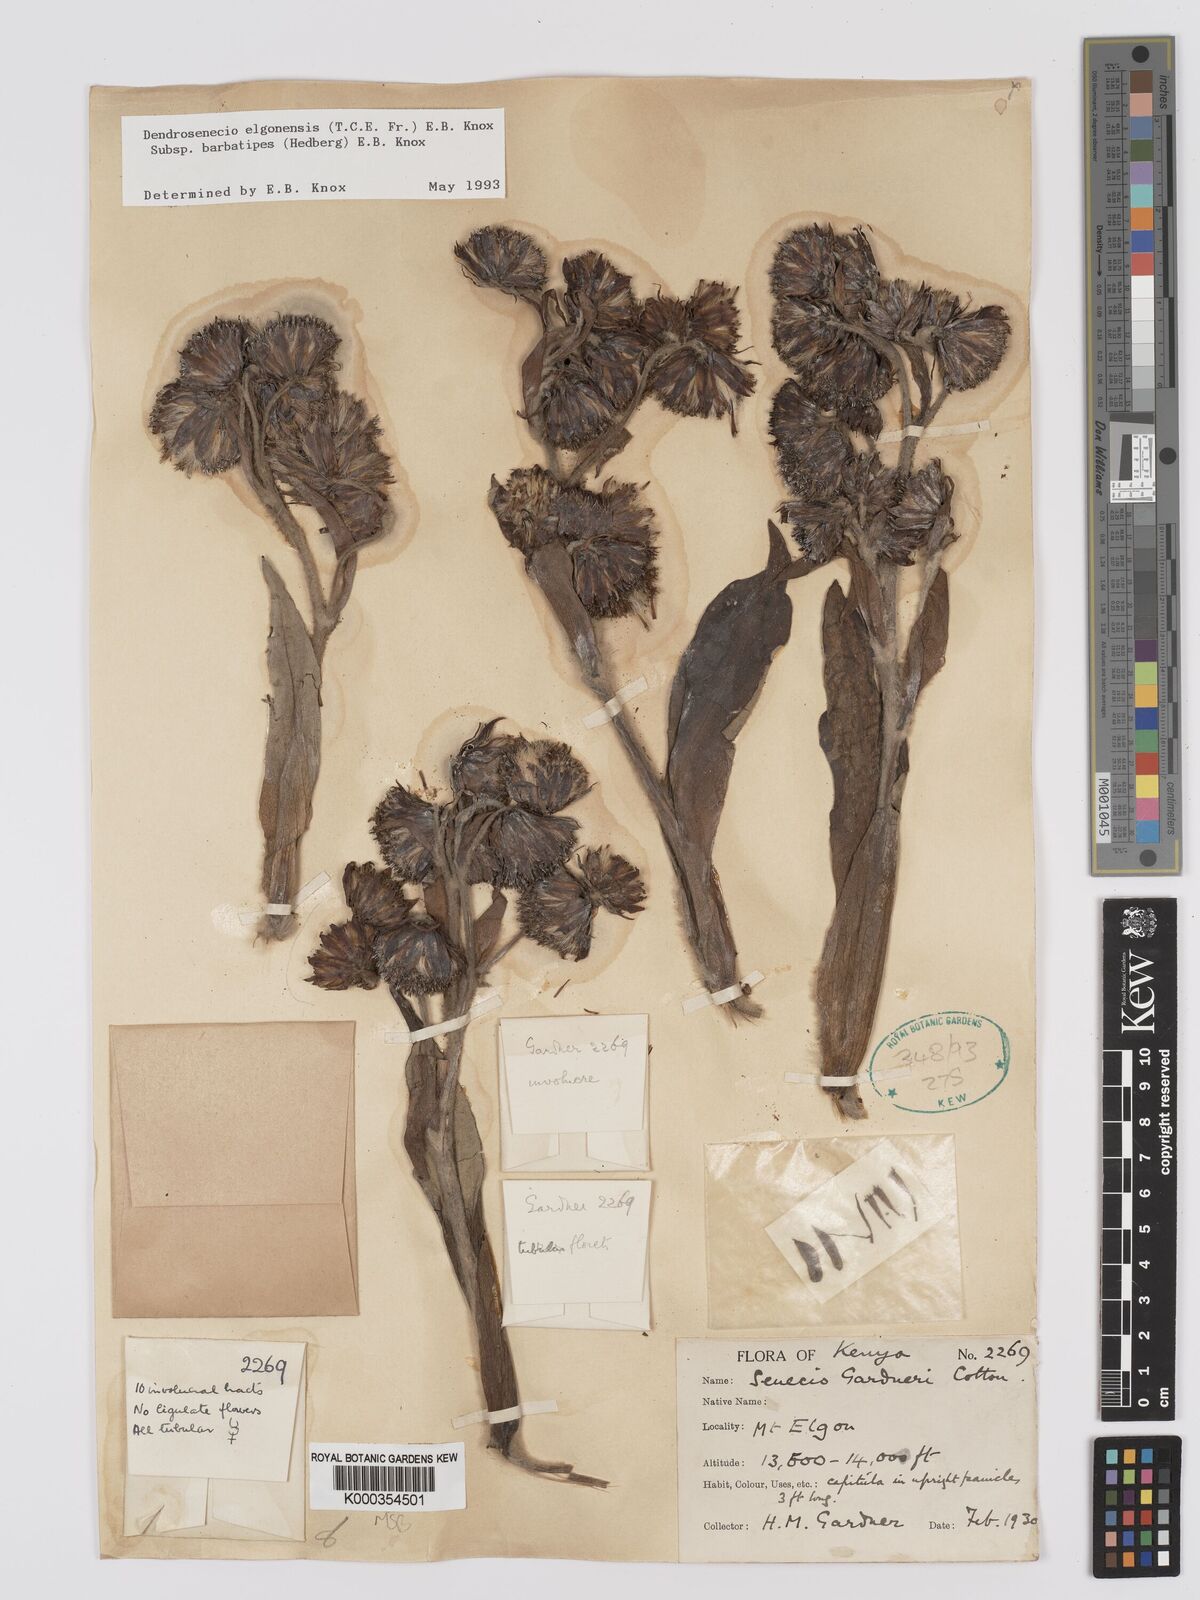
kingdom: Plantae
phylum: Tracheophyta
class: Magnoliopsida
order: Asterales
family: Asteraceae
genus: Dendrosenecio
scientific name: Dendrosenecio elgonensis
